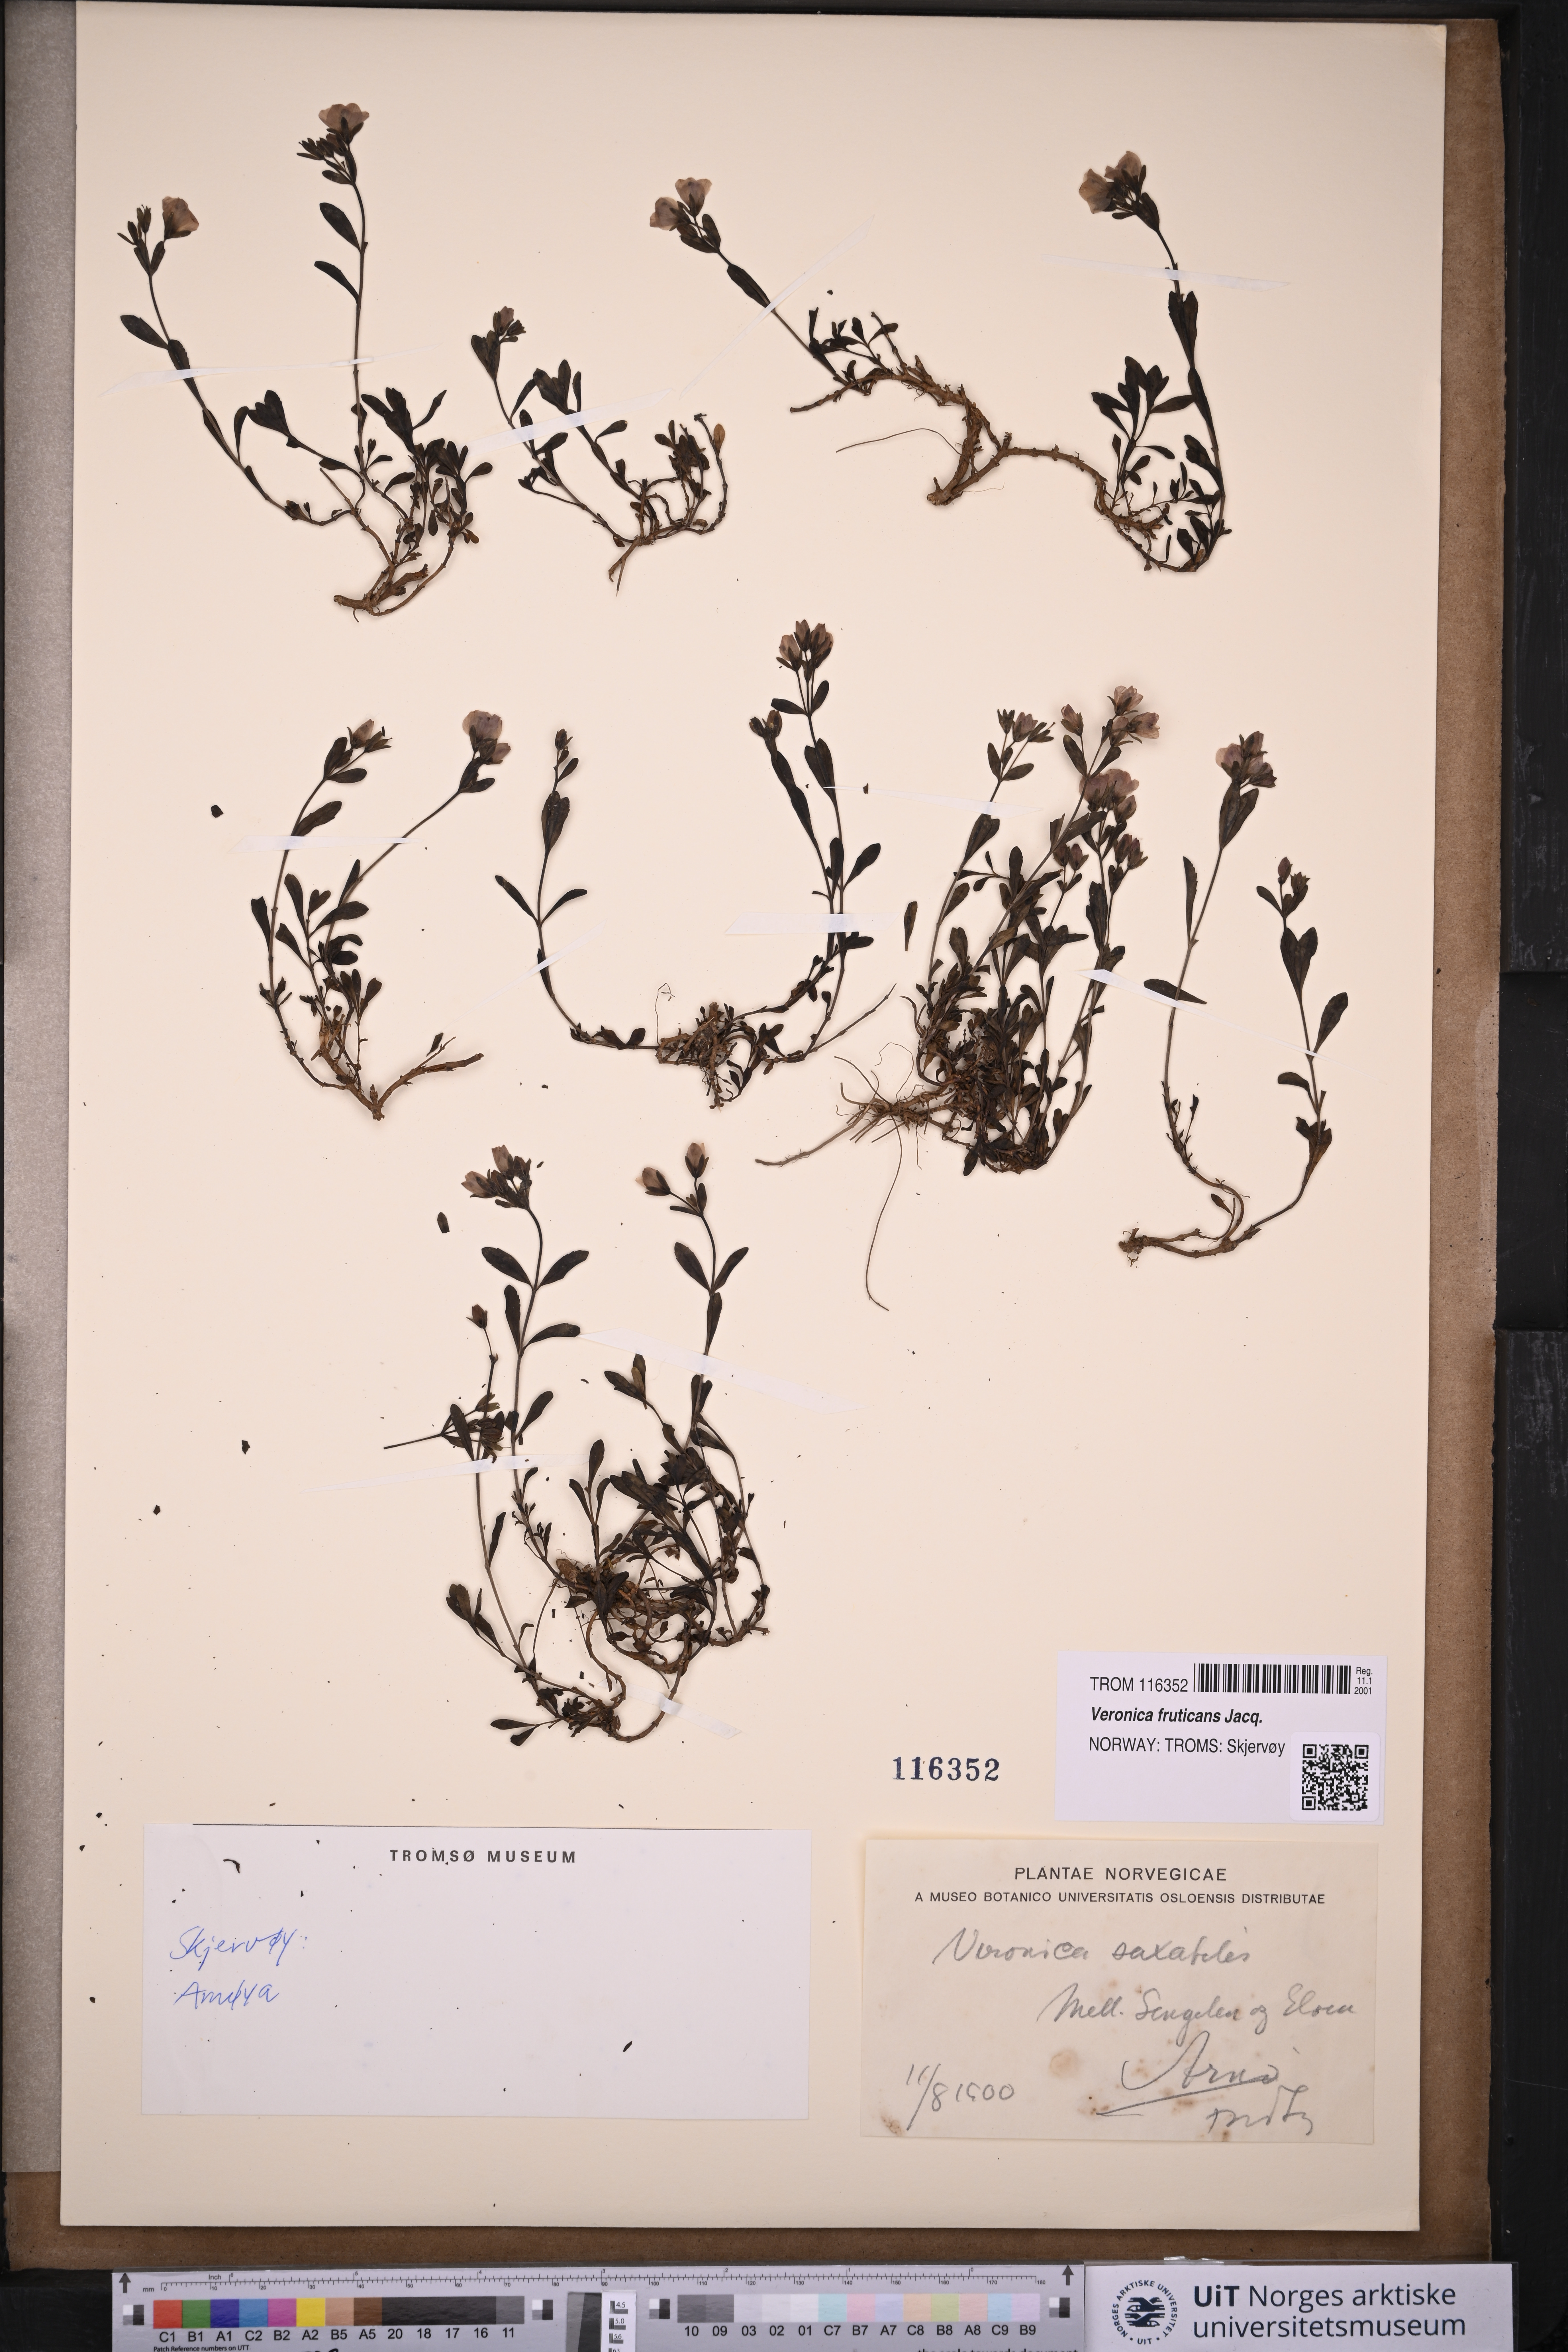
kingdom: Plantae
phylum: Tracheophyta
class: Magnoliopsida
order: Lamiales
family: Plantaginaceae
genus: Veronica
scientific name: Veronica fruticans
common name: Rock speedwell
